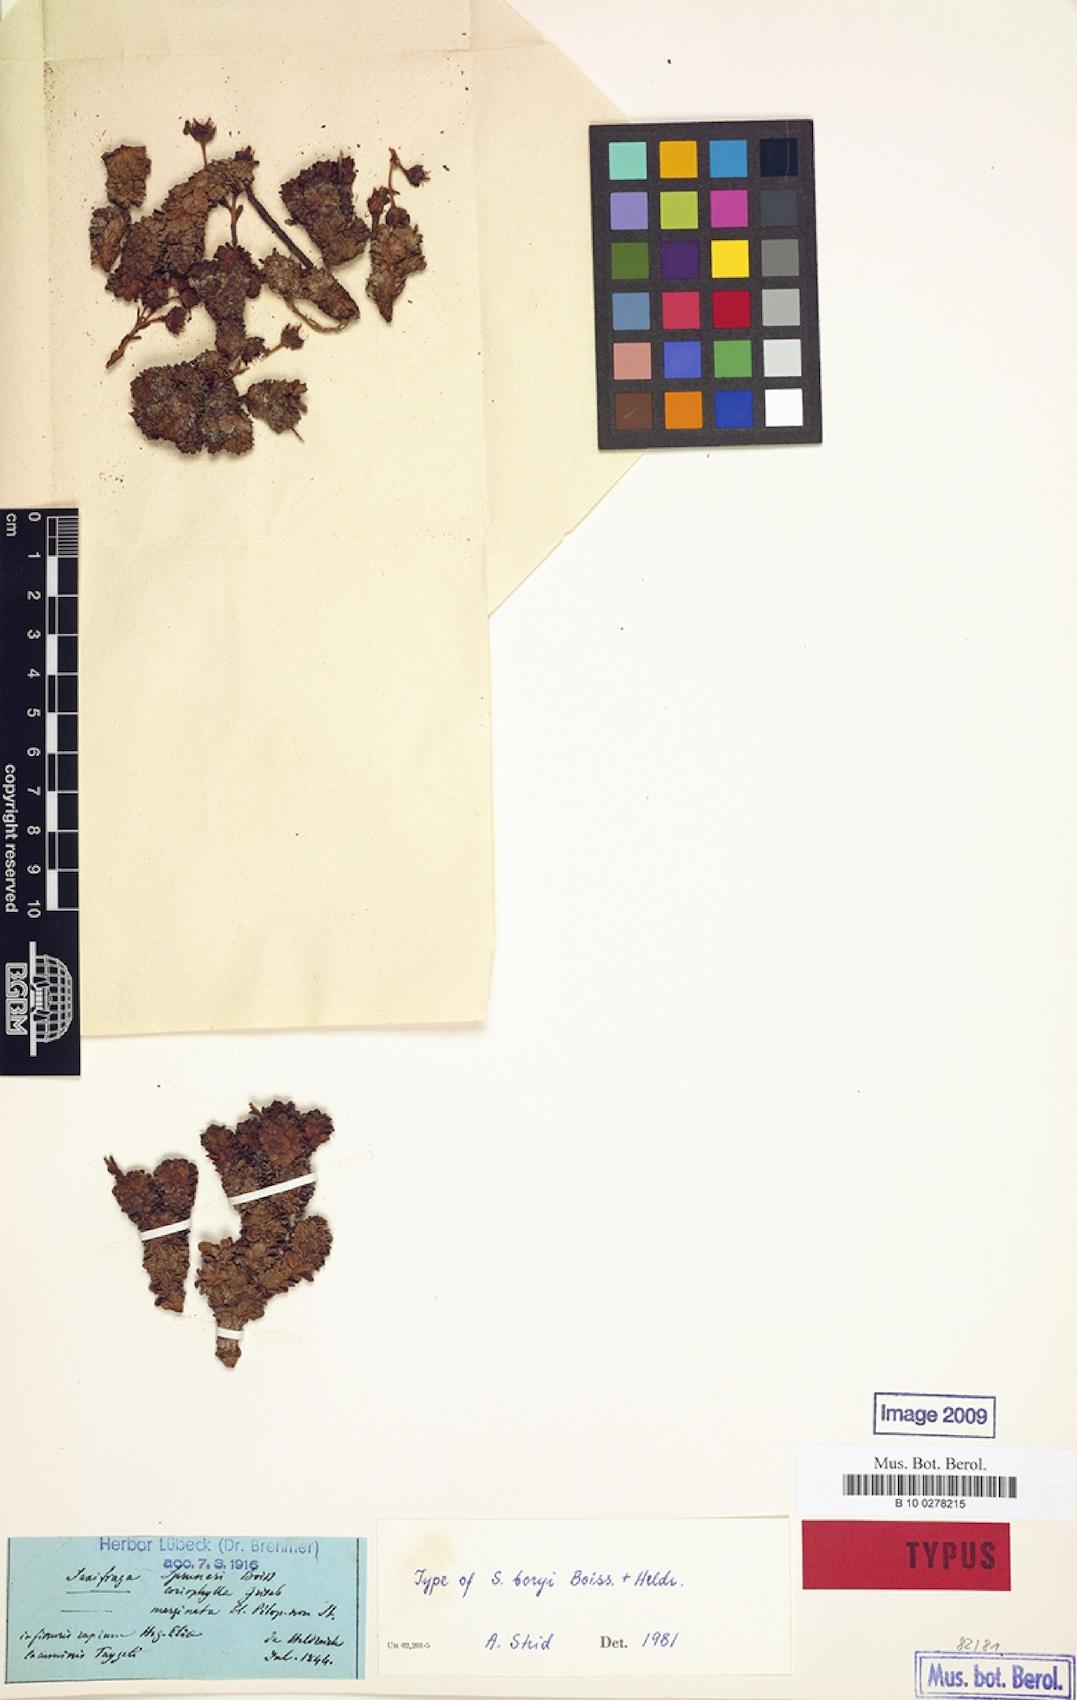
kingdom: Plantae
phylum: Tracheophyta
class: Magnoliopsida
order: Saxifragales
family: Saxifragaceae
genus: Saxifraga
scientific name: Saxifraga marginata
